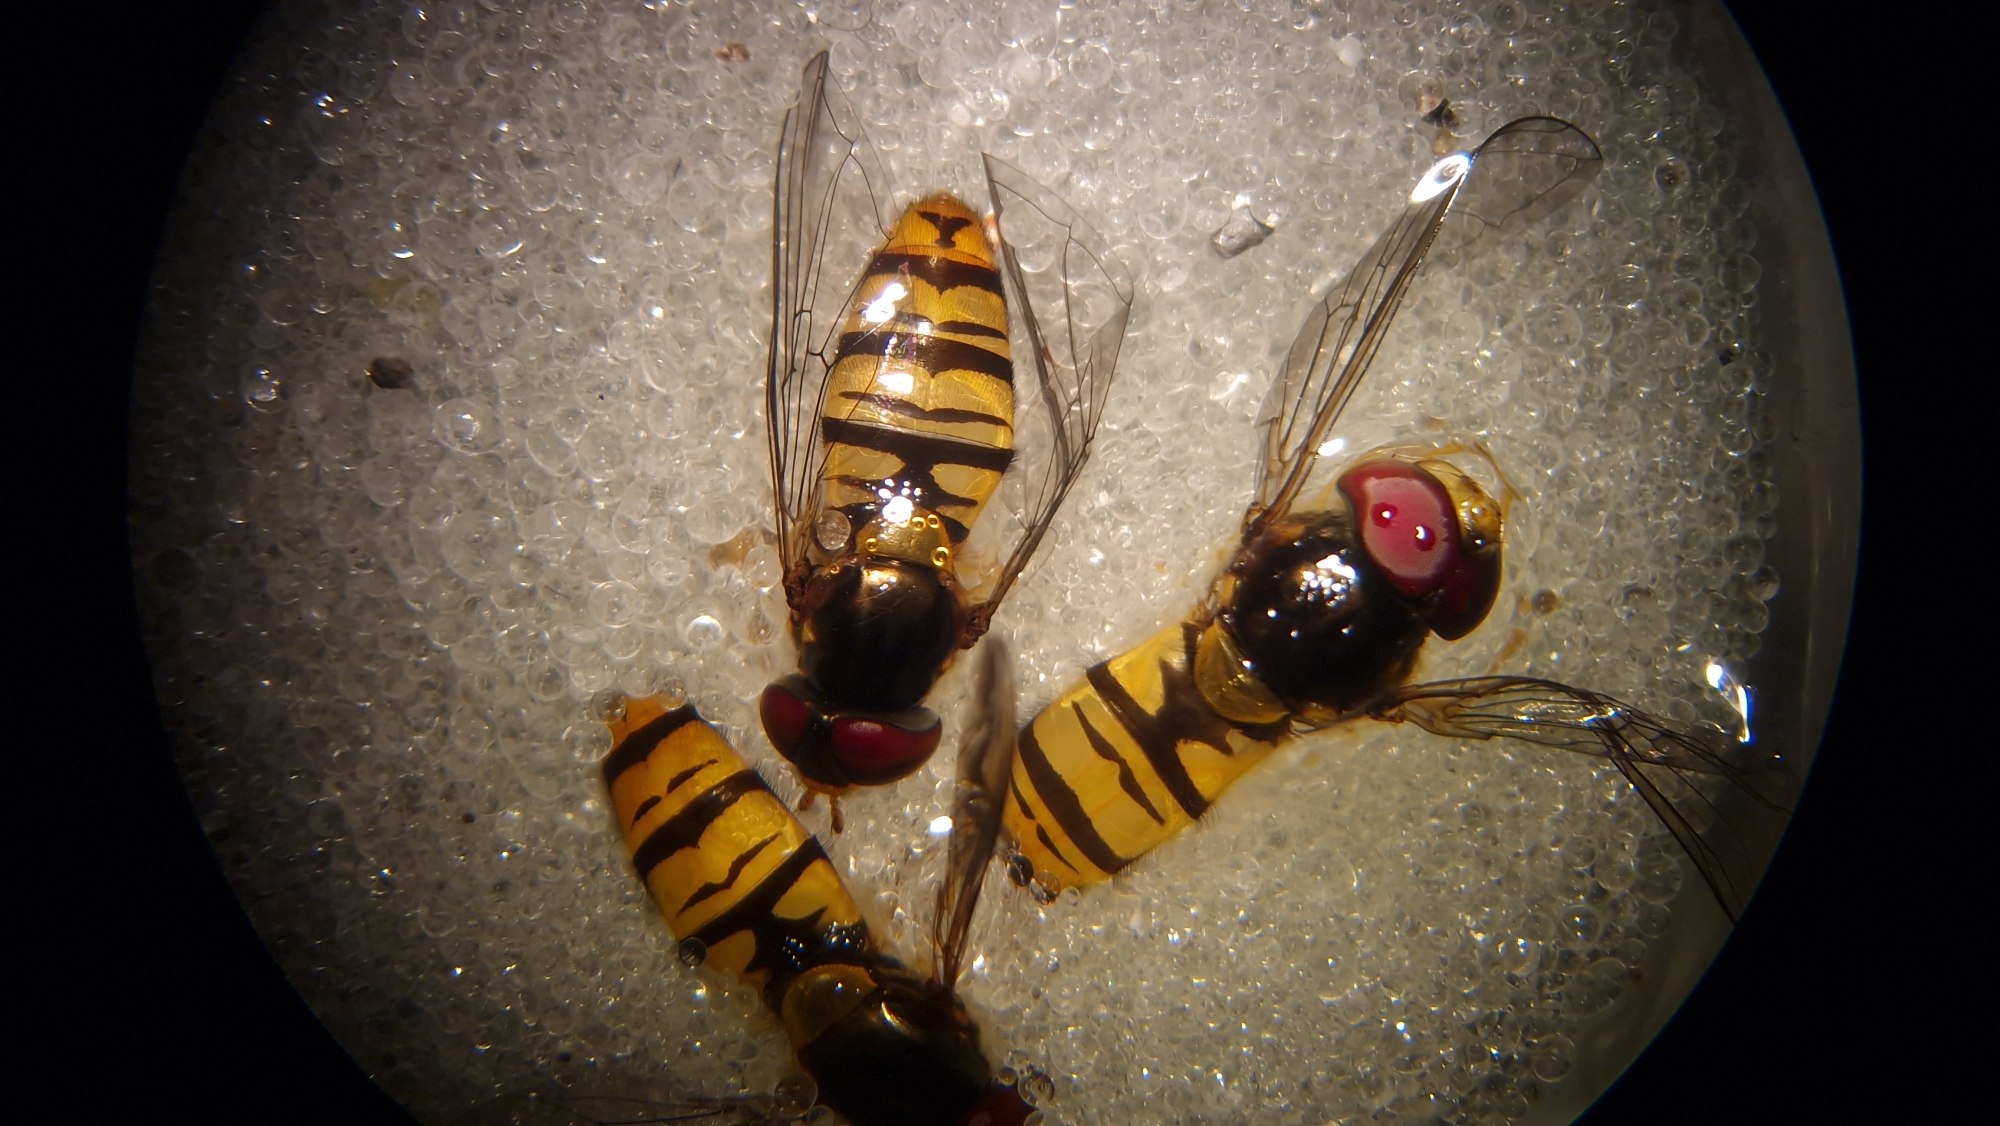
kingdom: Animalia
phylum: Arthropoda
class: Insecta
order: Diptera
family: Syrphidae
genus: Episyrphus
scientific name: Episyrphus balteatus
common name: Dobbeltbåndet svirreflue
